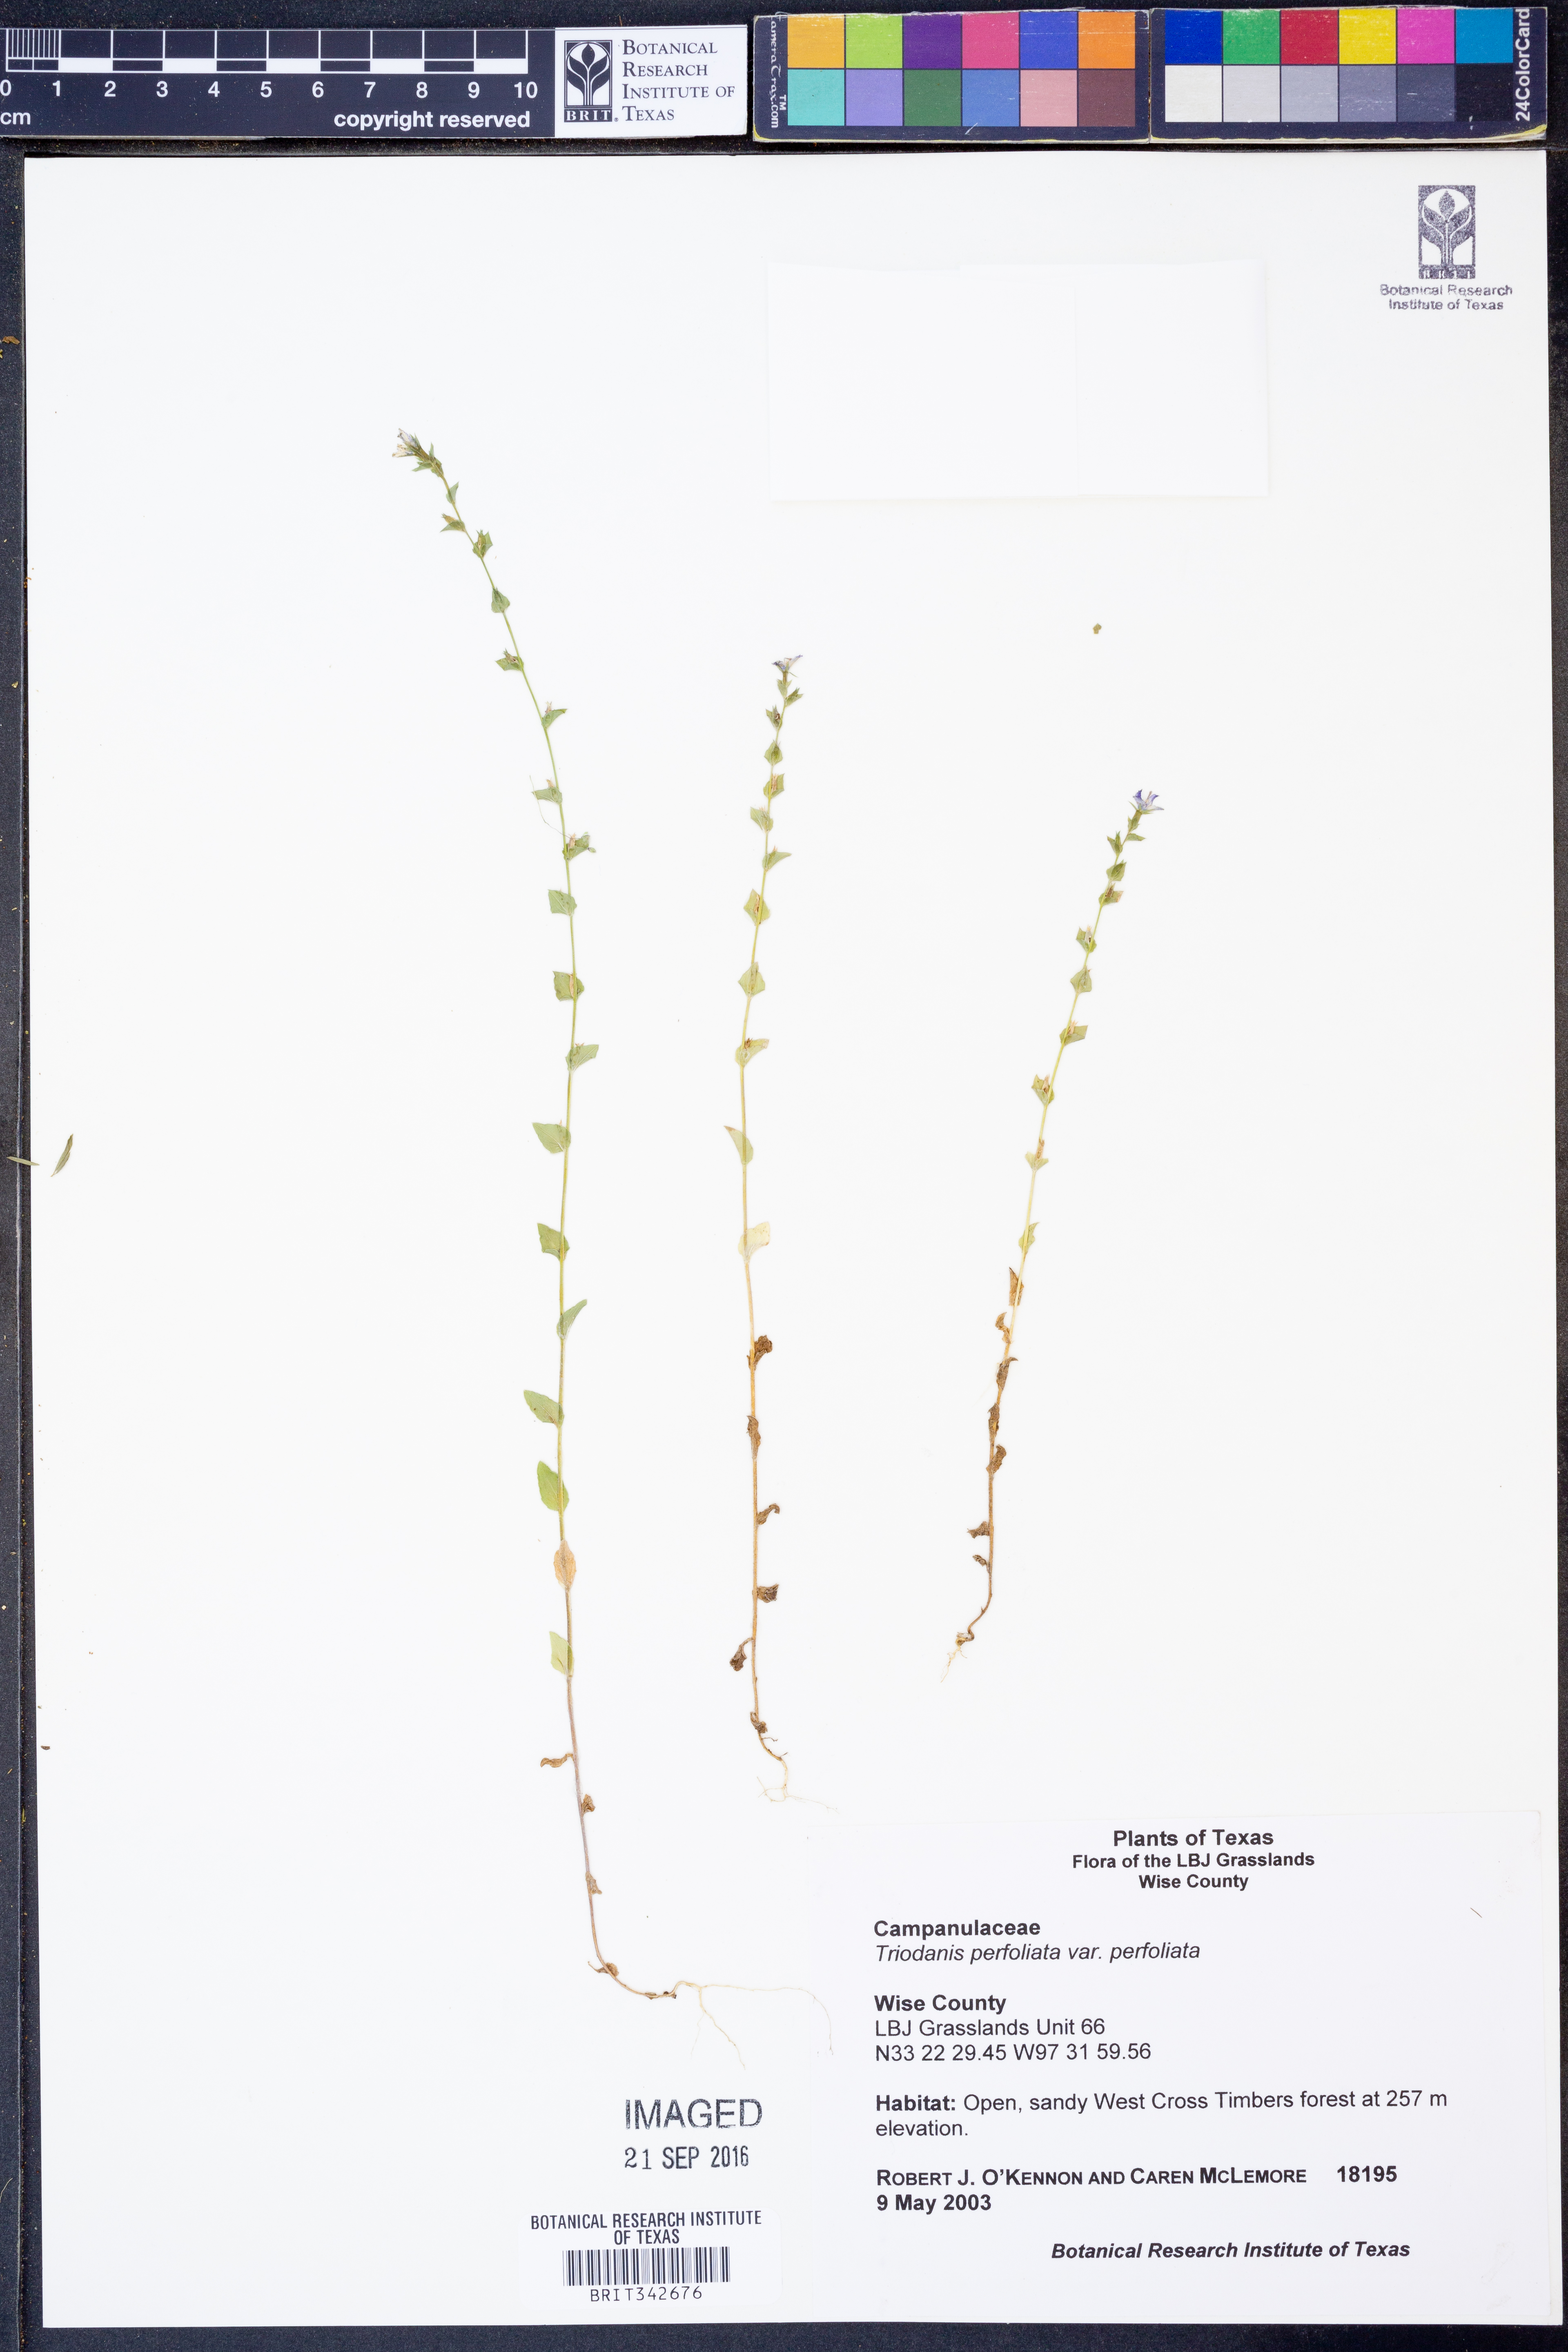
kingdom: Plantae
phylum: Tracheophyta
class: Magnoliopsida
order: Asterales
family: Campanulaceae
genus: Triodanis
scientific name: Triodanis perfoliata
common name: Clasping venus' looking-glass
